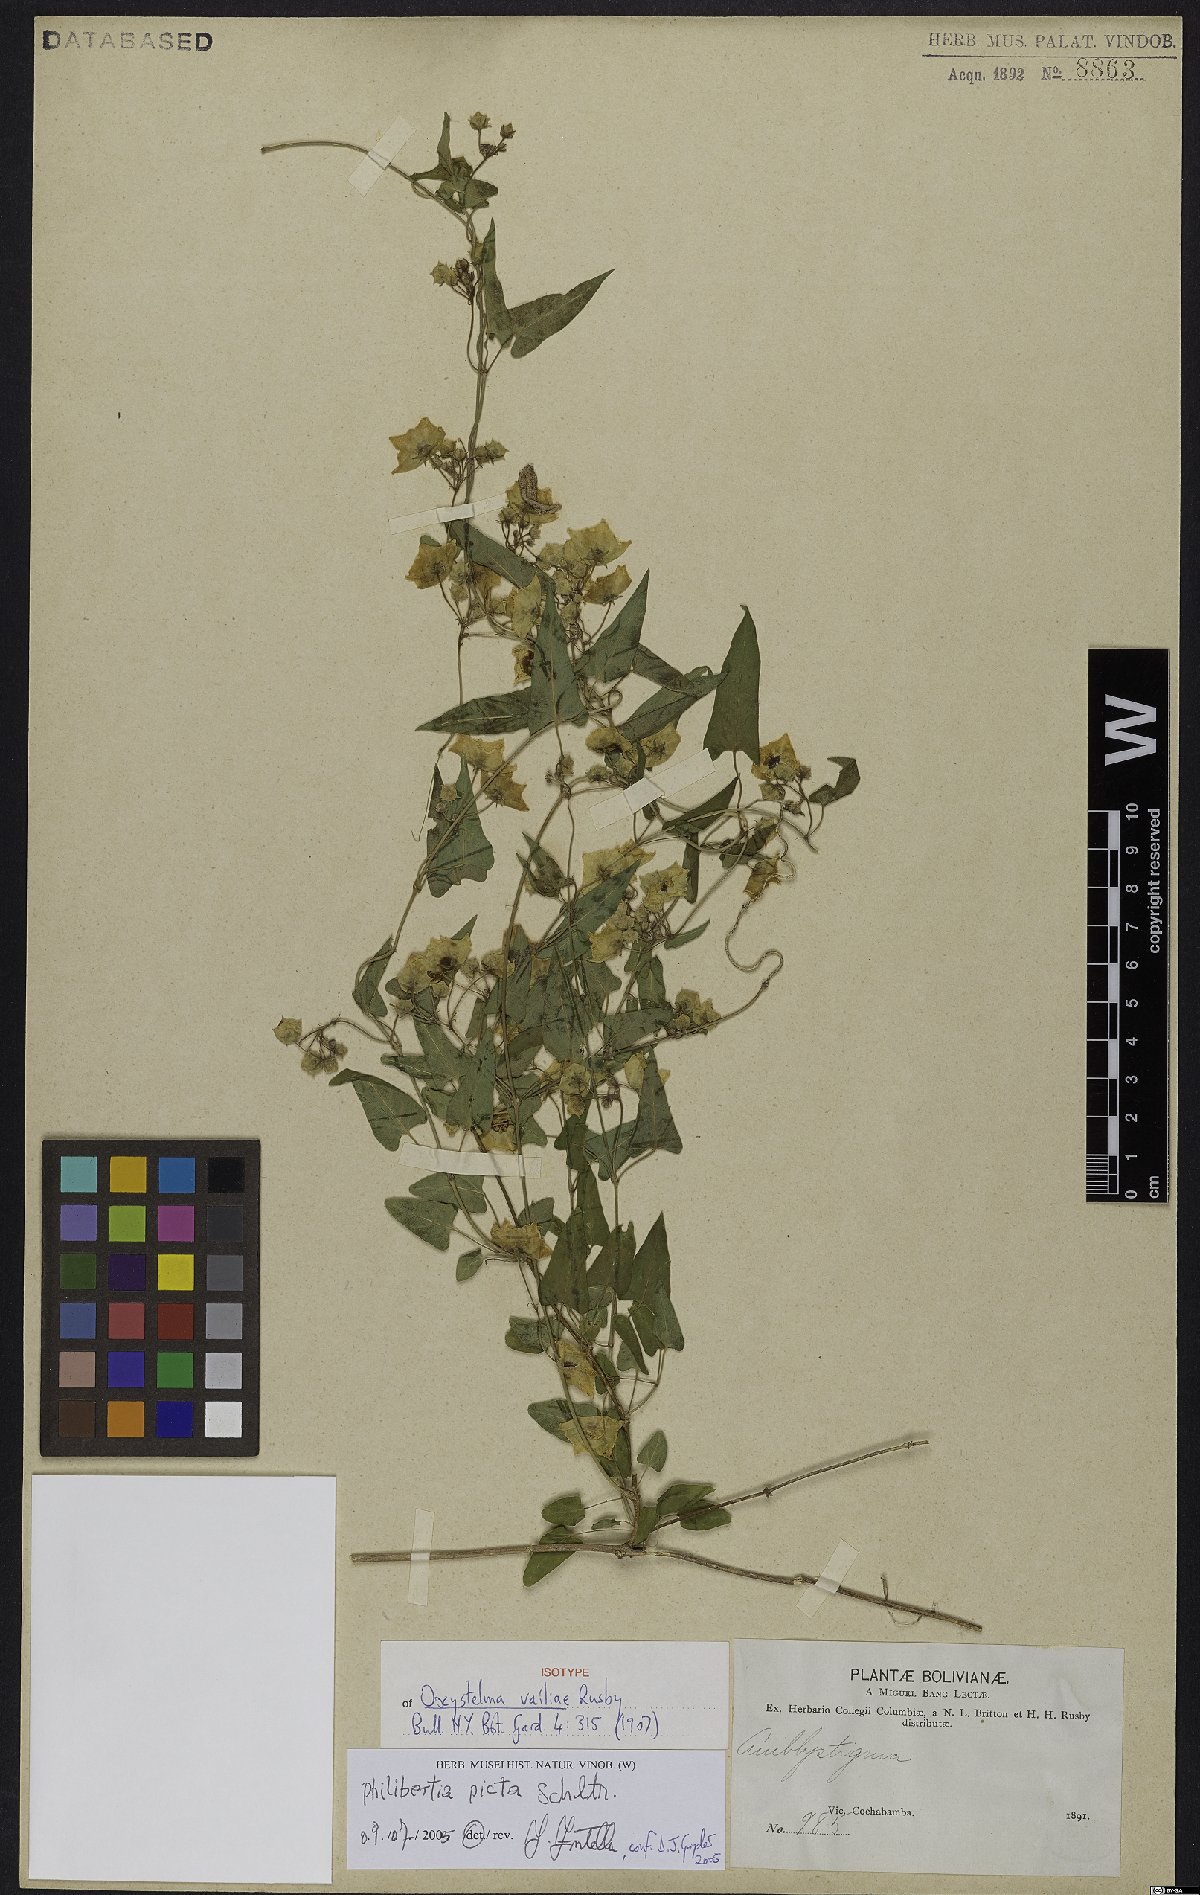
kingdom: Plantae
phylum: Tracheophyta
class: Magnoliopsida
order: Gentianales
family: Apocynaceae
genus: Philibertia
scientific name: Philibertia picta
